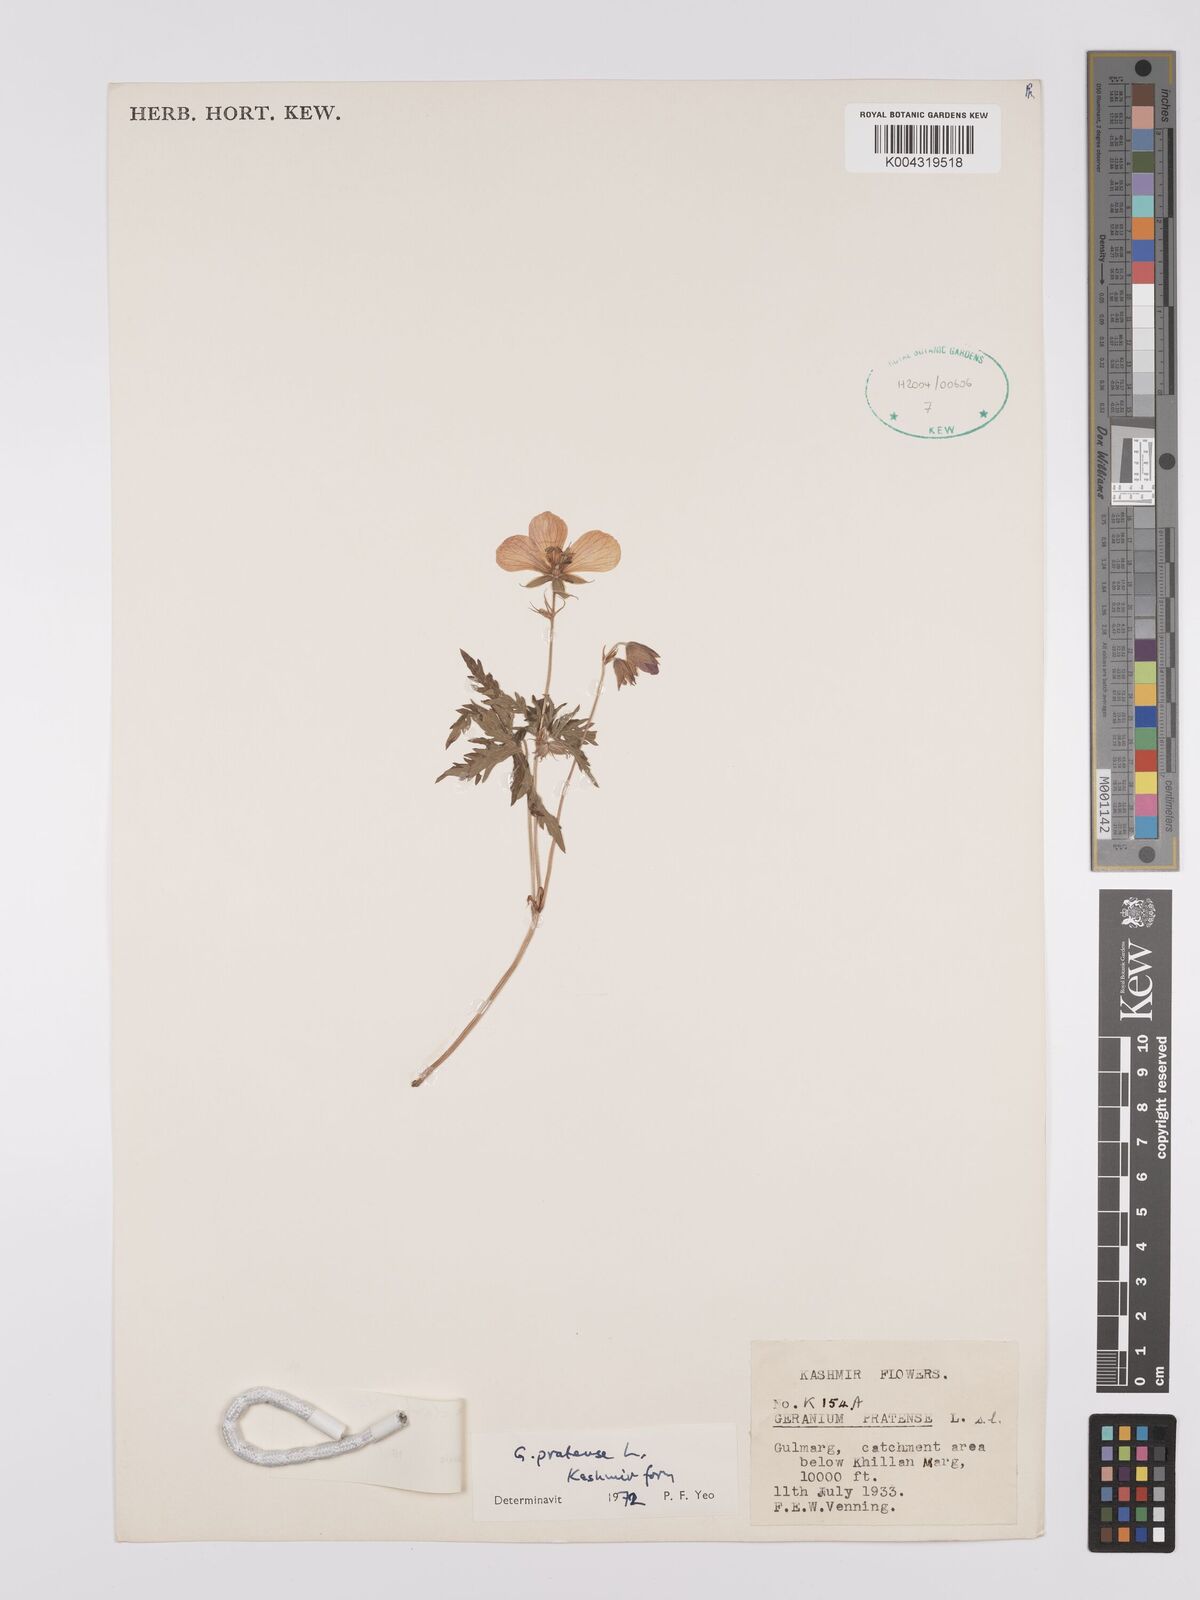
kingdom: Plantae
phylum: Tracheophyta
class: Magnoliopsida
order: Geraniales
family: Geraniaceae
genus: Geranium
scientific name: Geranium clarkei
